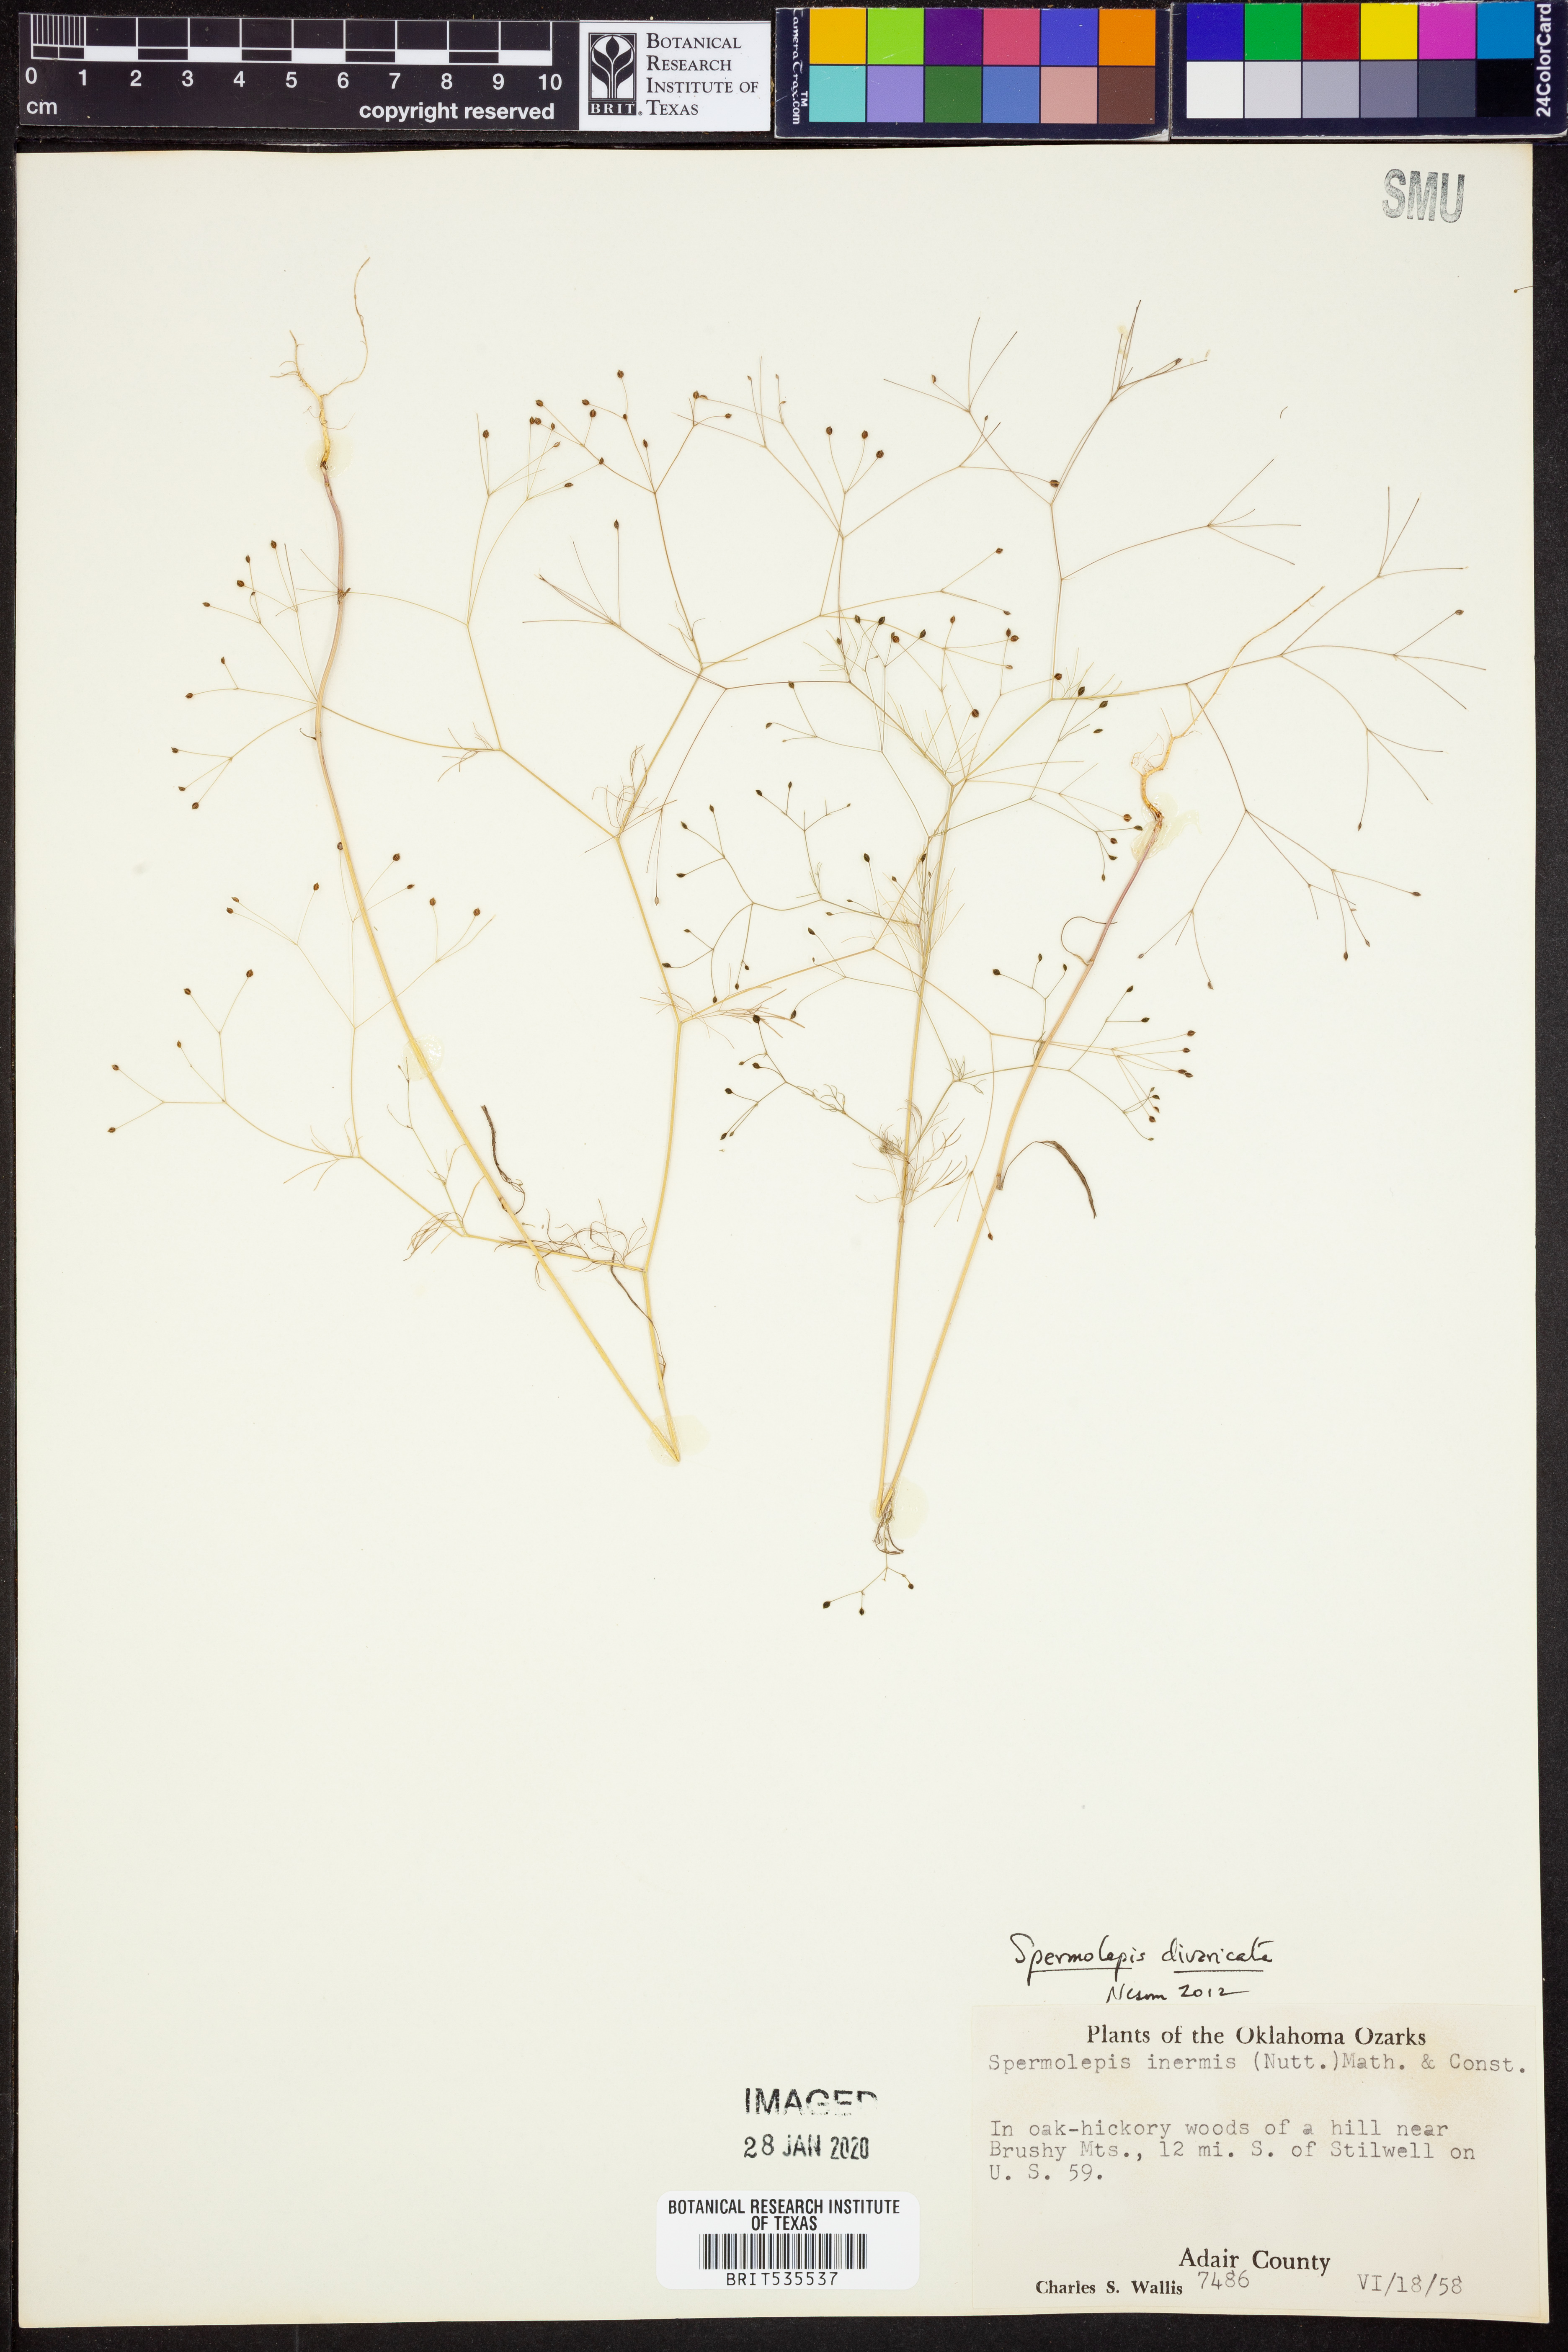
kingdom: Plantae
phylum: Tracheophyta
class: Magnoliopsida
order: Apiales
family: Apiaceae
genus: Spermolepis
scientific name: Spermolepis divaricata
